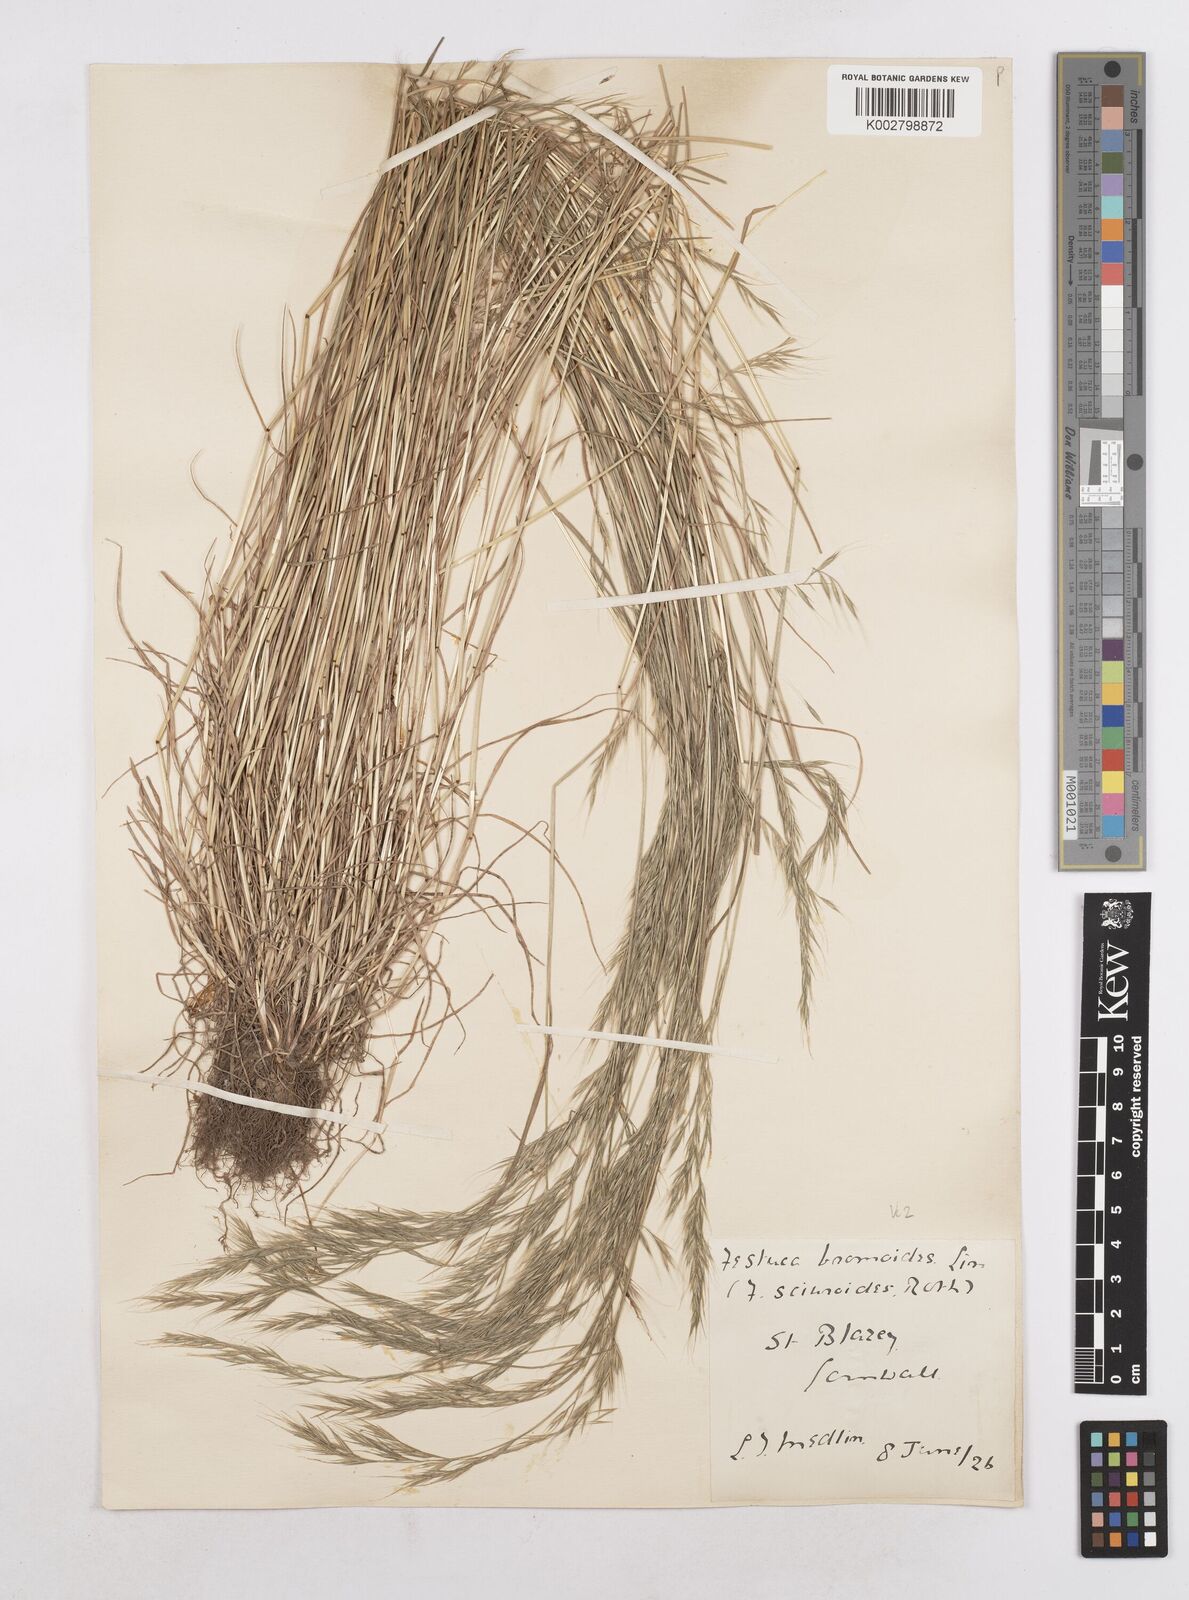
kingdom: Plantae
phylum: Tracheophyta
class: Liliopsida
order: Poales
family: Poaceae
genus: Festuca
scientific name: Festuca bromoides
